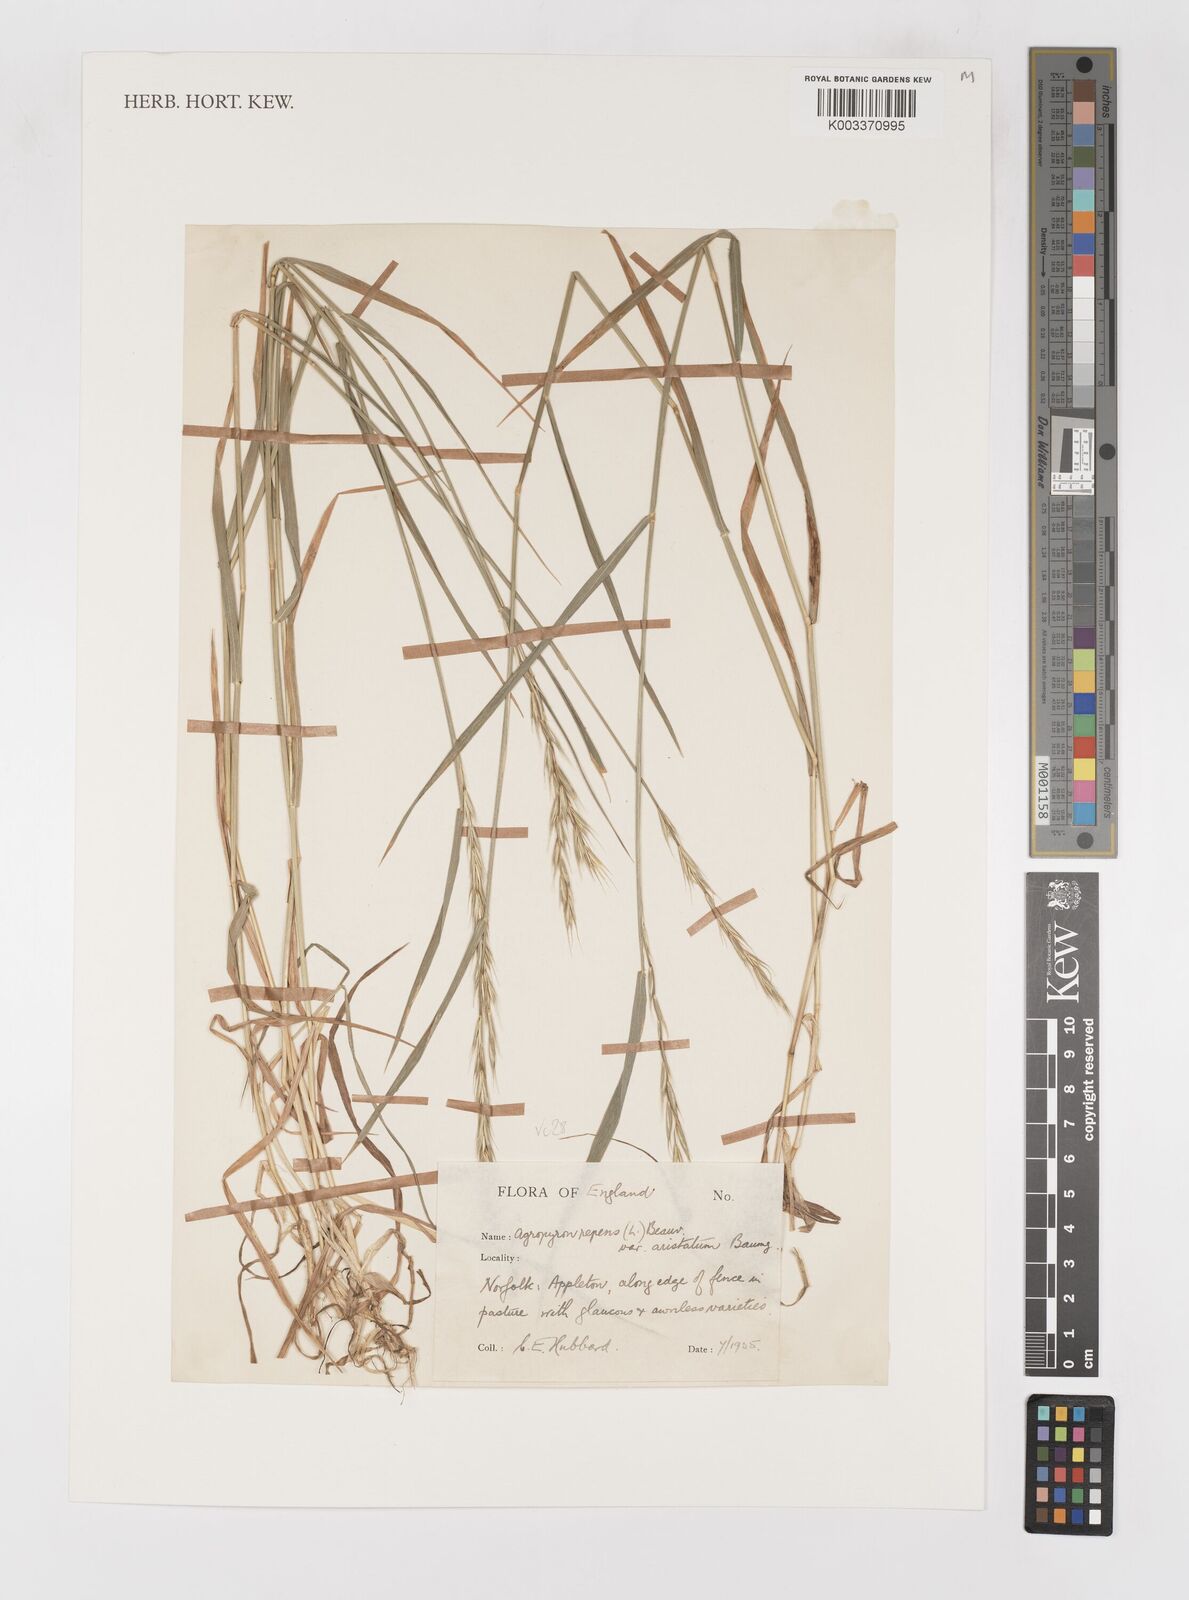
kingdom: Plantae
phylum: Tracheophyta
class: Liliopsida
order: Poales
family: Poaceae
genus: Elymus
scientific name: Elymus repens
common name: Quackgrass
